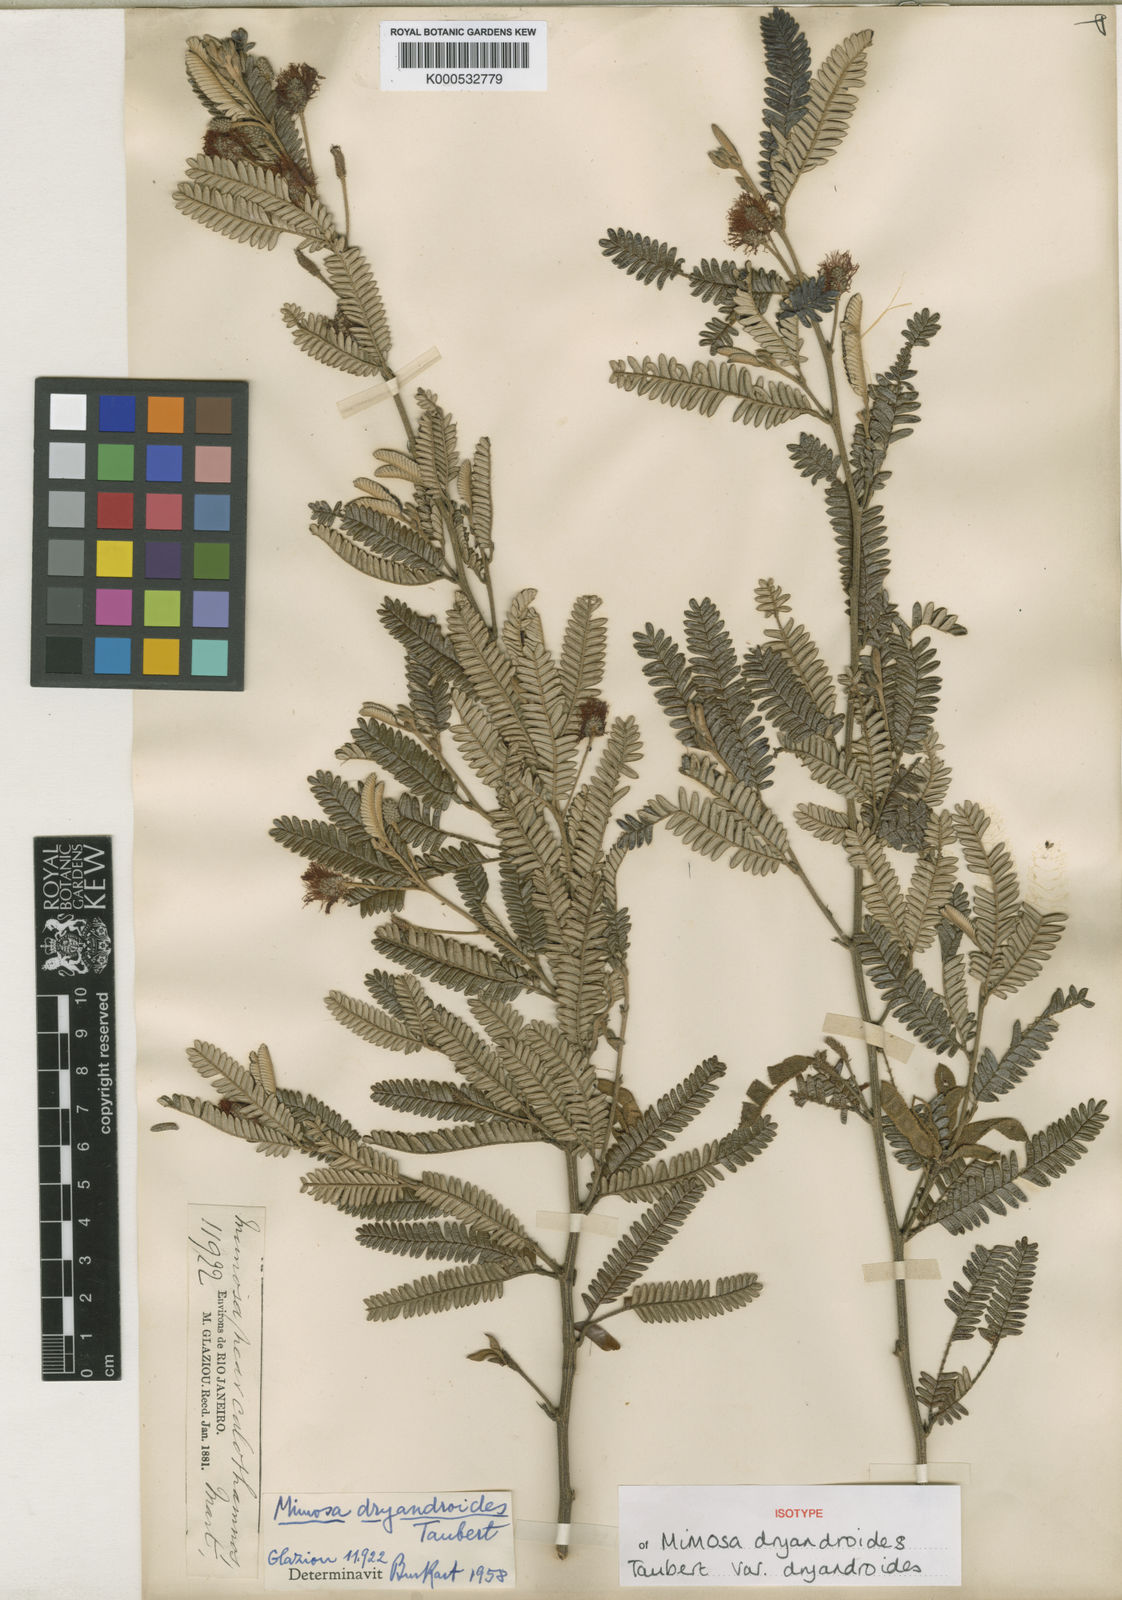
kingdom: Plantae
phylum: Tracheophyta
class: Magnoliopsida
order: Fabales
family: Fabaceae
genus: Mimosa
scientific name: Mimosa dryandroides
